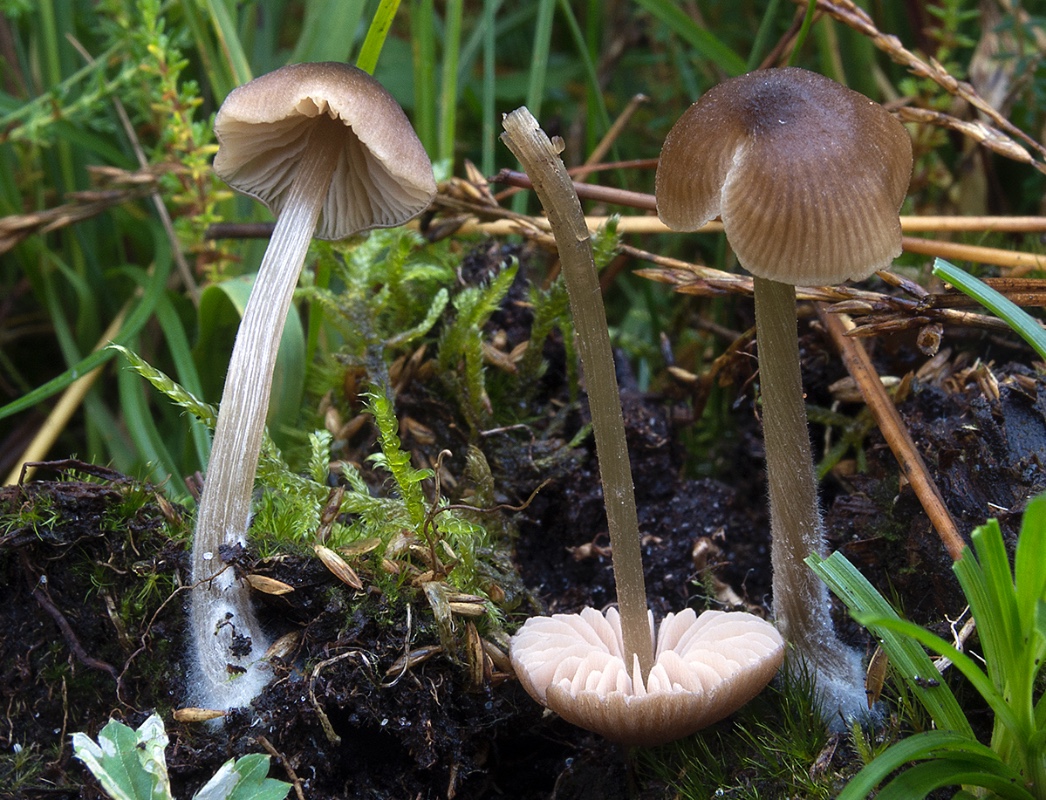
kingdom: Fungi
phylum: Basidiomycota
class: Agaricomycetes
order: Agaricales
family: Entolomataceae
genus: Entoloma
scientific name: Entoloma conferendum
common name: stjernesporet rødblad
